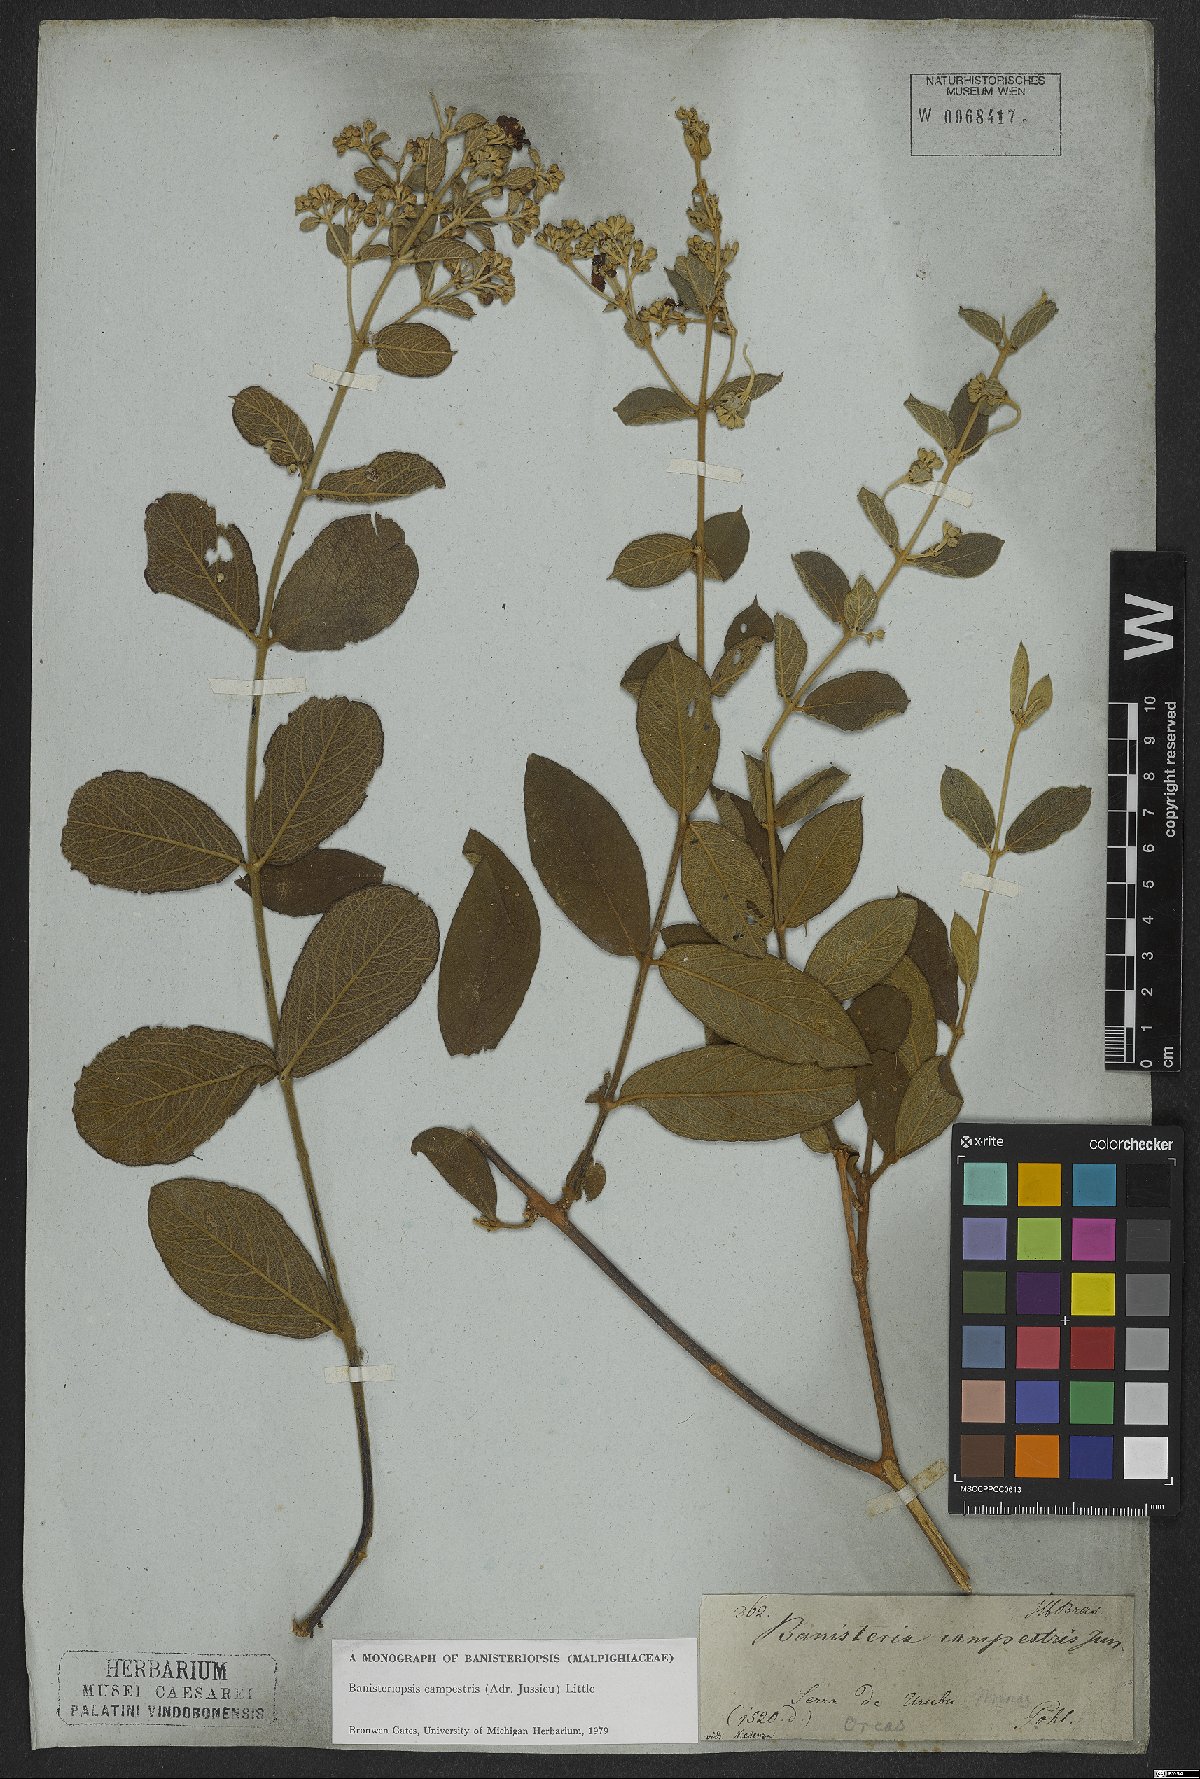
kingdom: Plantae
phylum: Tracheophyta
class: Magnoliopsida
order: Malpighiales
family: Malpighiaceae
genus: Banisteriopsis
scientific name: Banisteriopsis campestris
